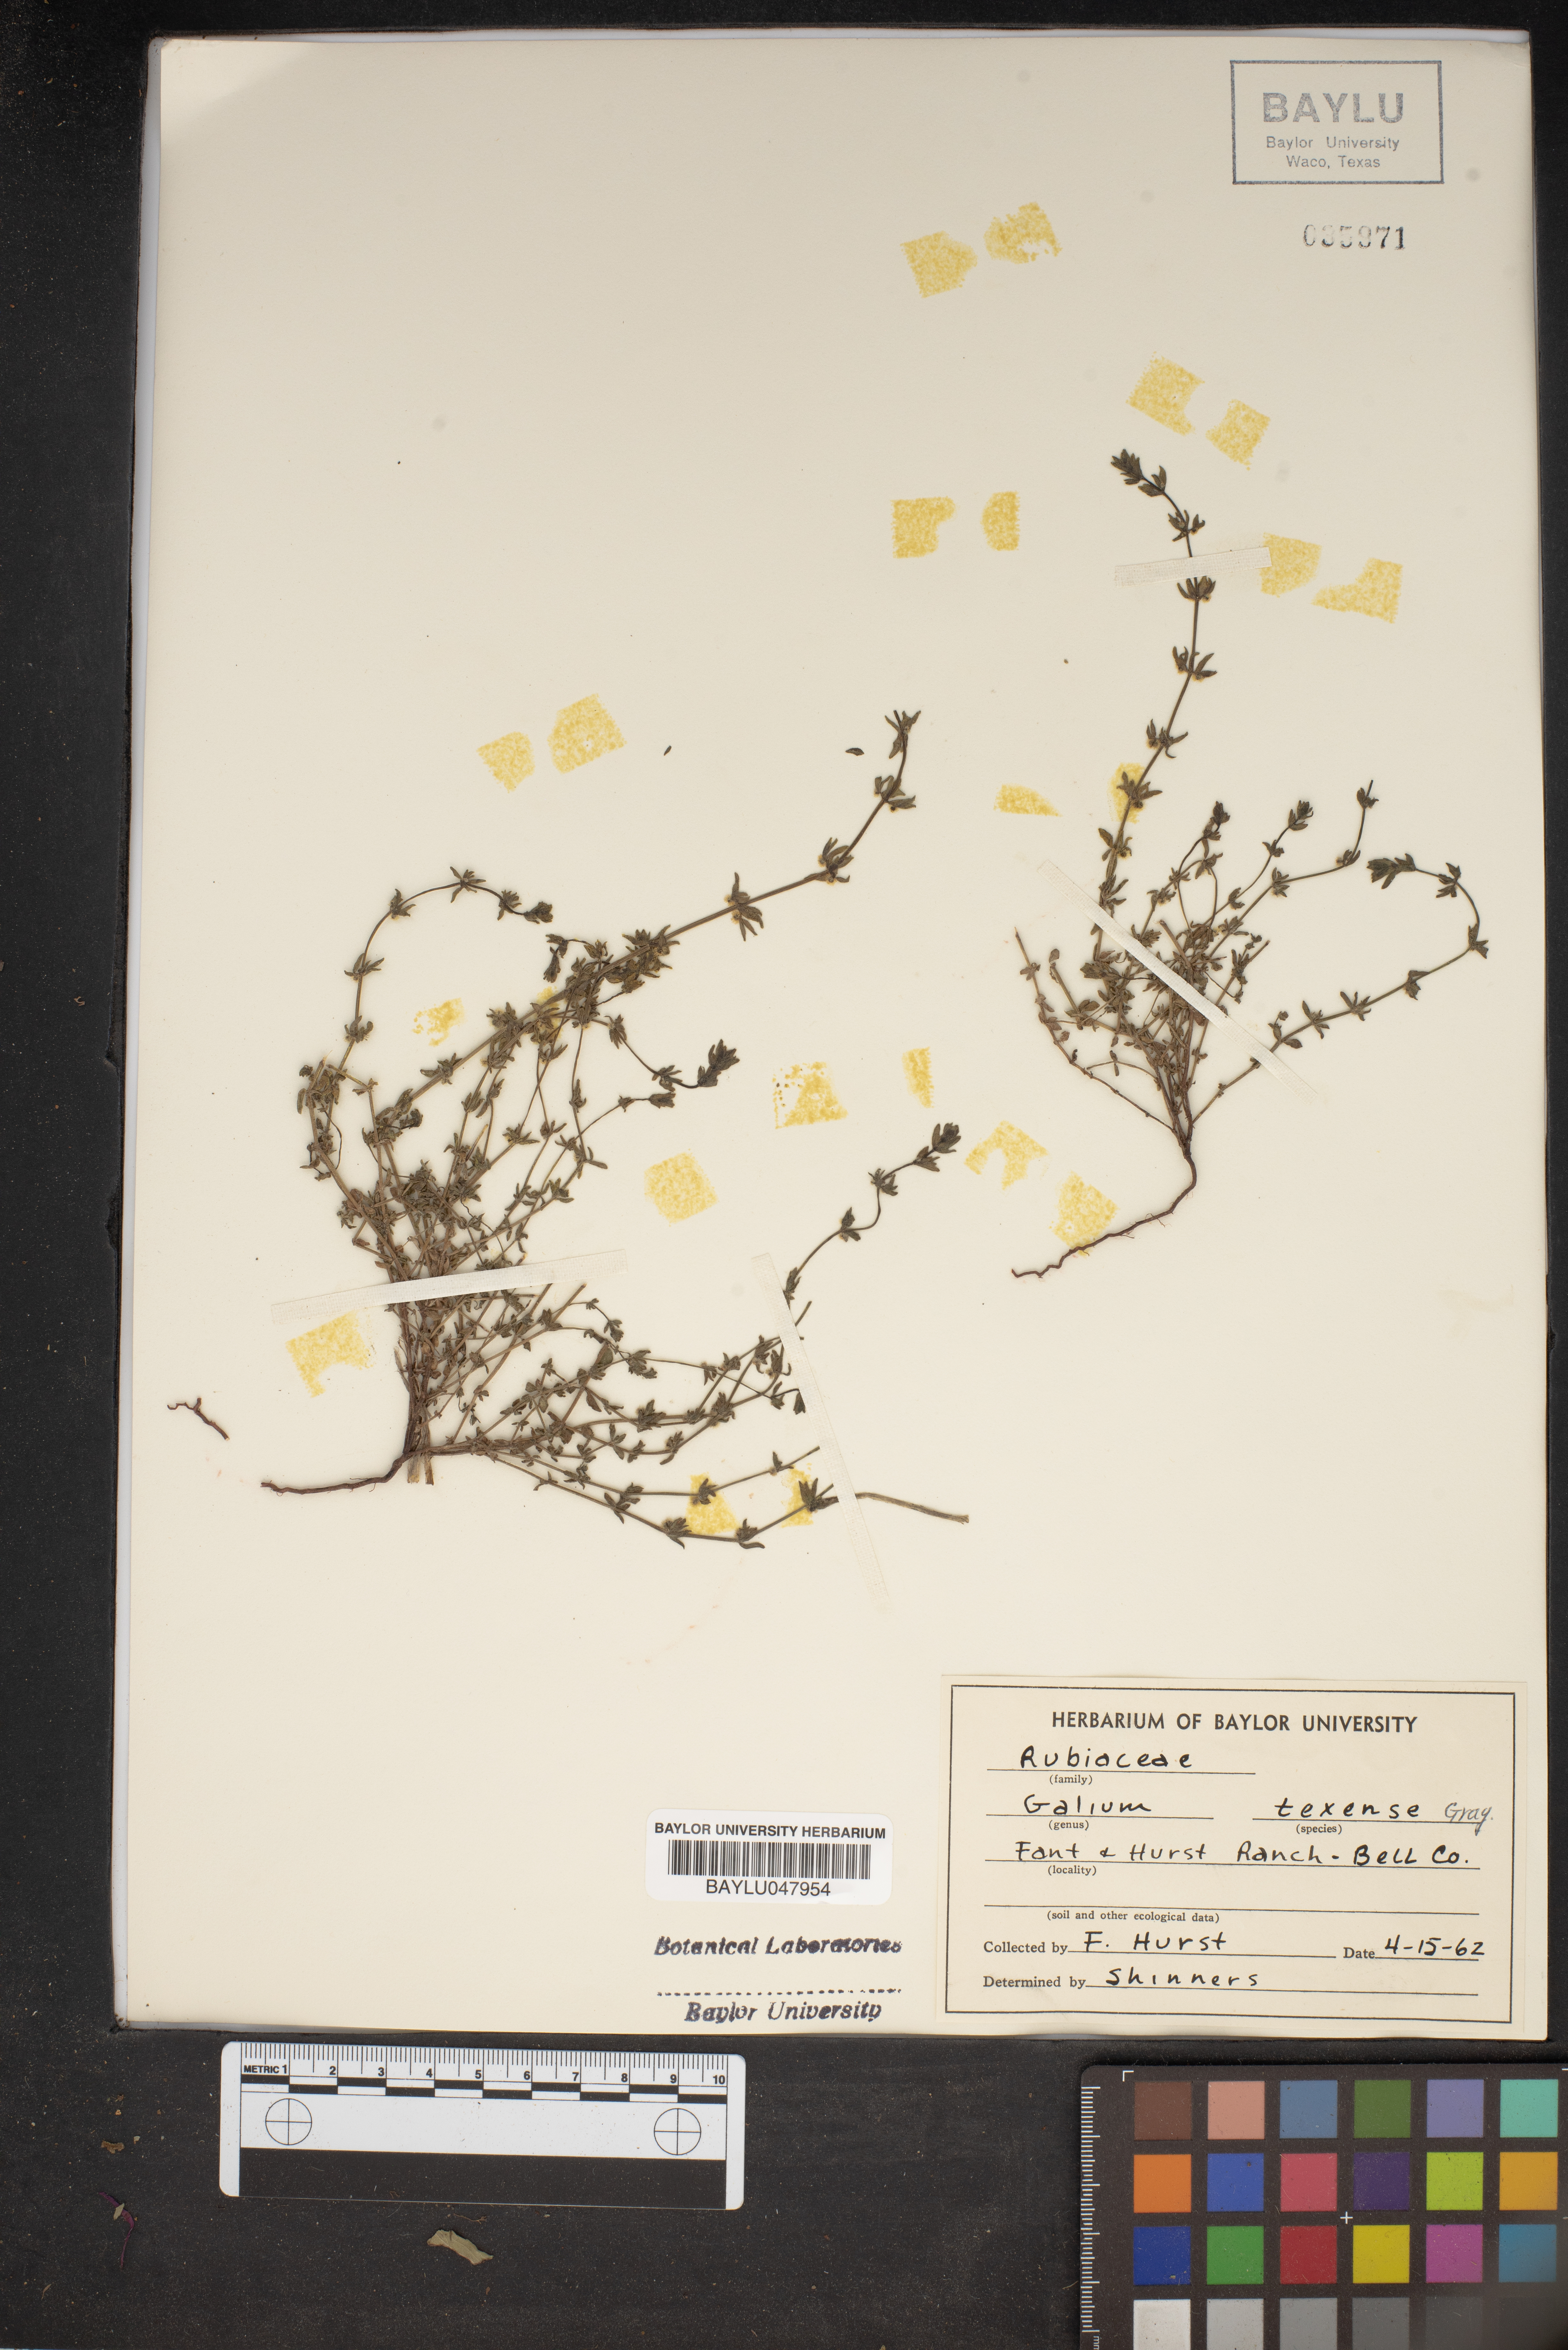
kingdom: Plantae
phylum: Tracheophyta
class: Magnoliopsida
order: Gentianales
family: Rubiaceae
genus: Galium
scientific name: Galium texense
